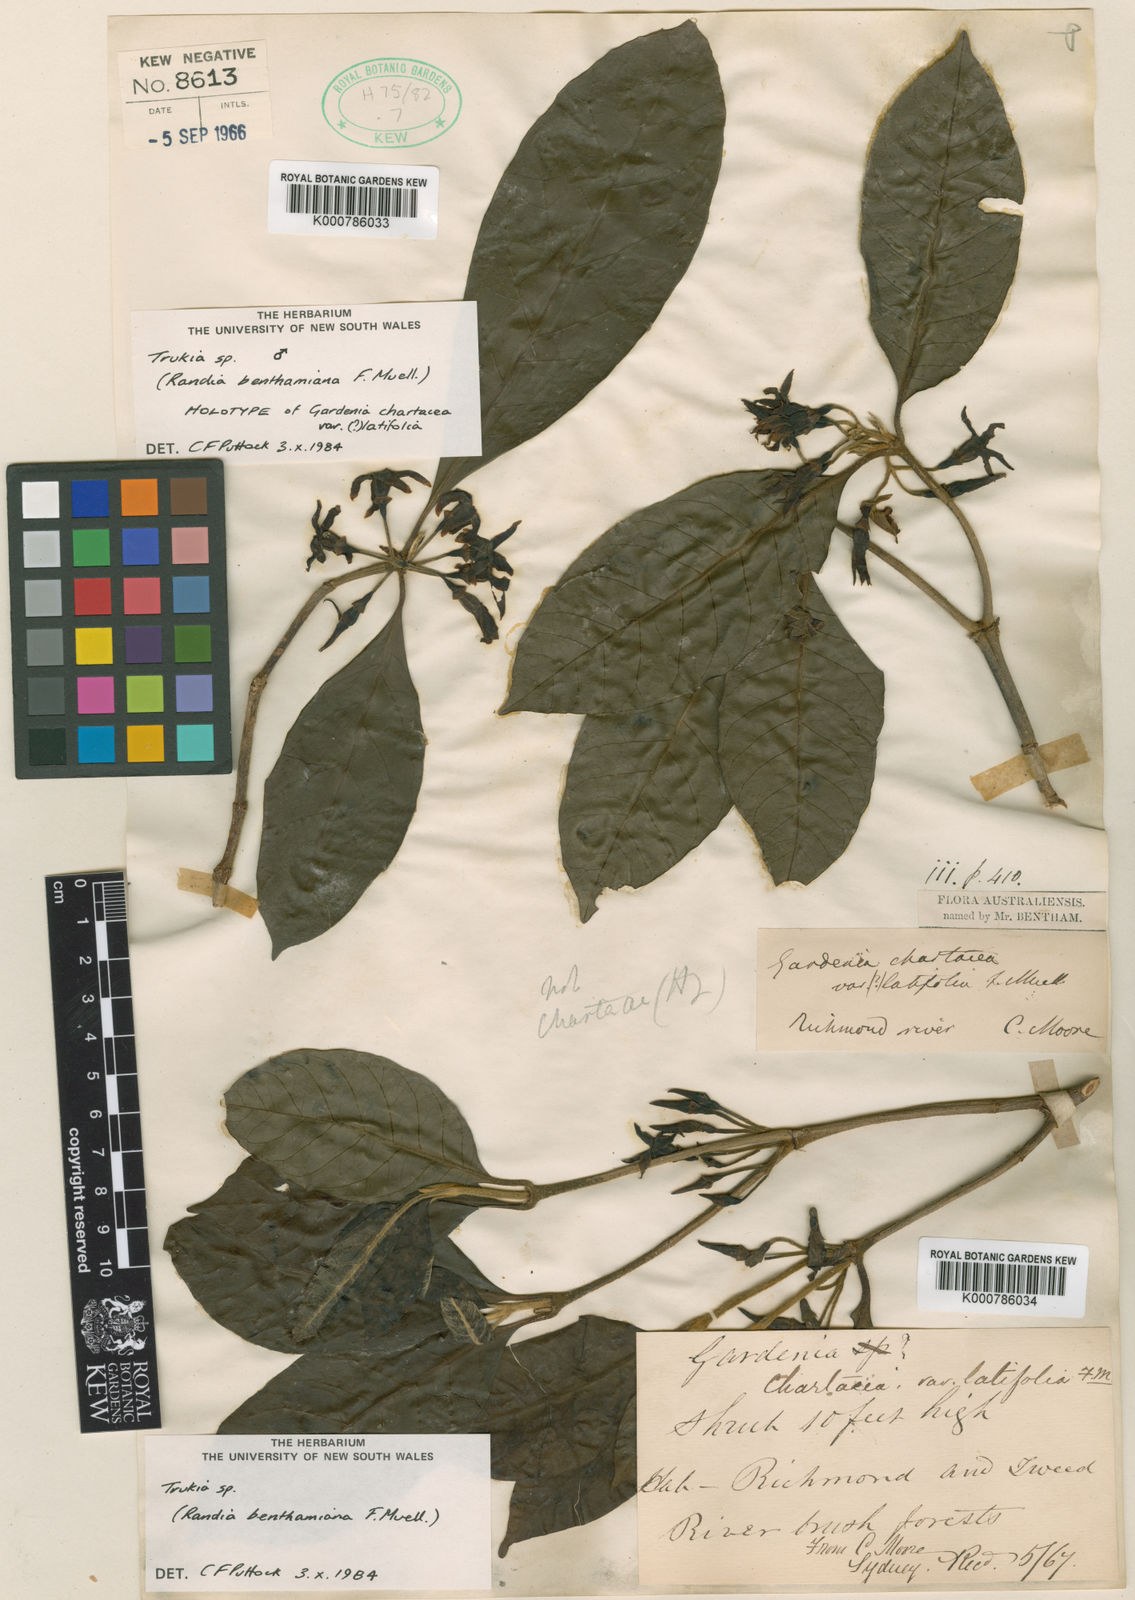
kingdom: Plantae
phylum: Tracheophyta
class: Magnoliopsida
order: Gentianales
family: Rubiaceae
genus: Atractocarpus
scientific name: Atractocarpus benthamianus
